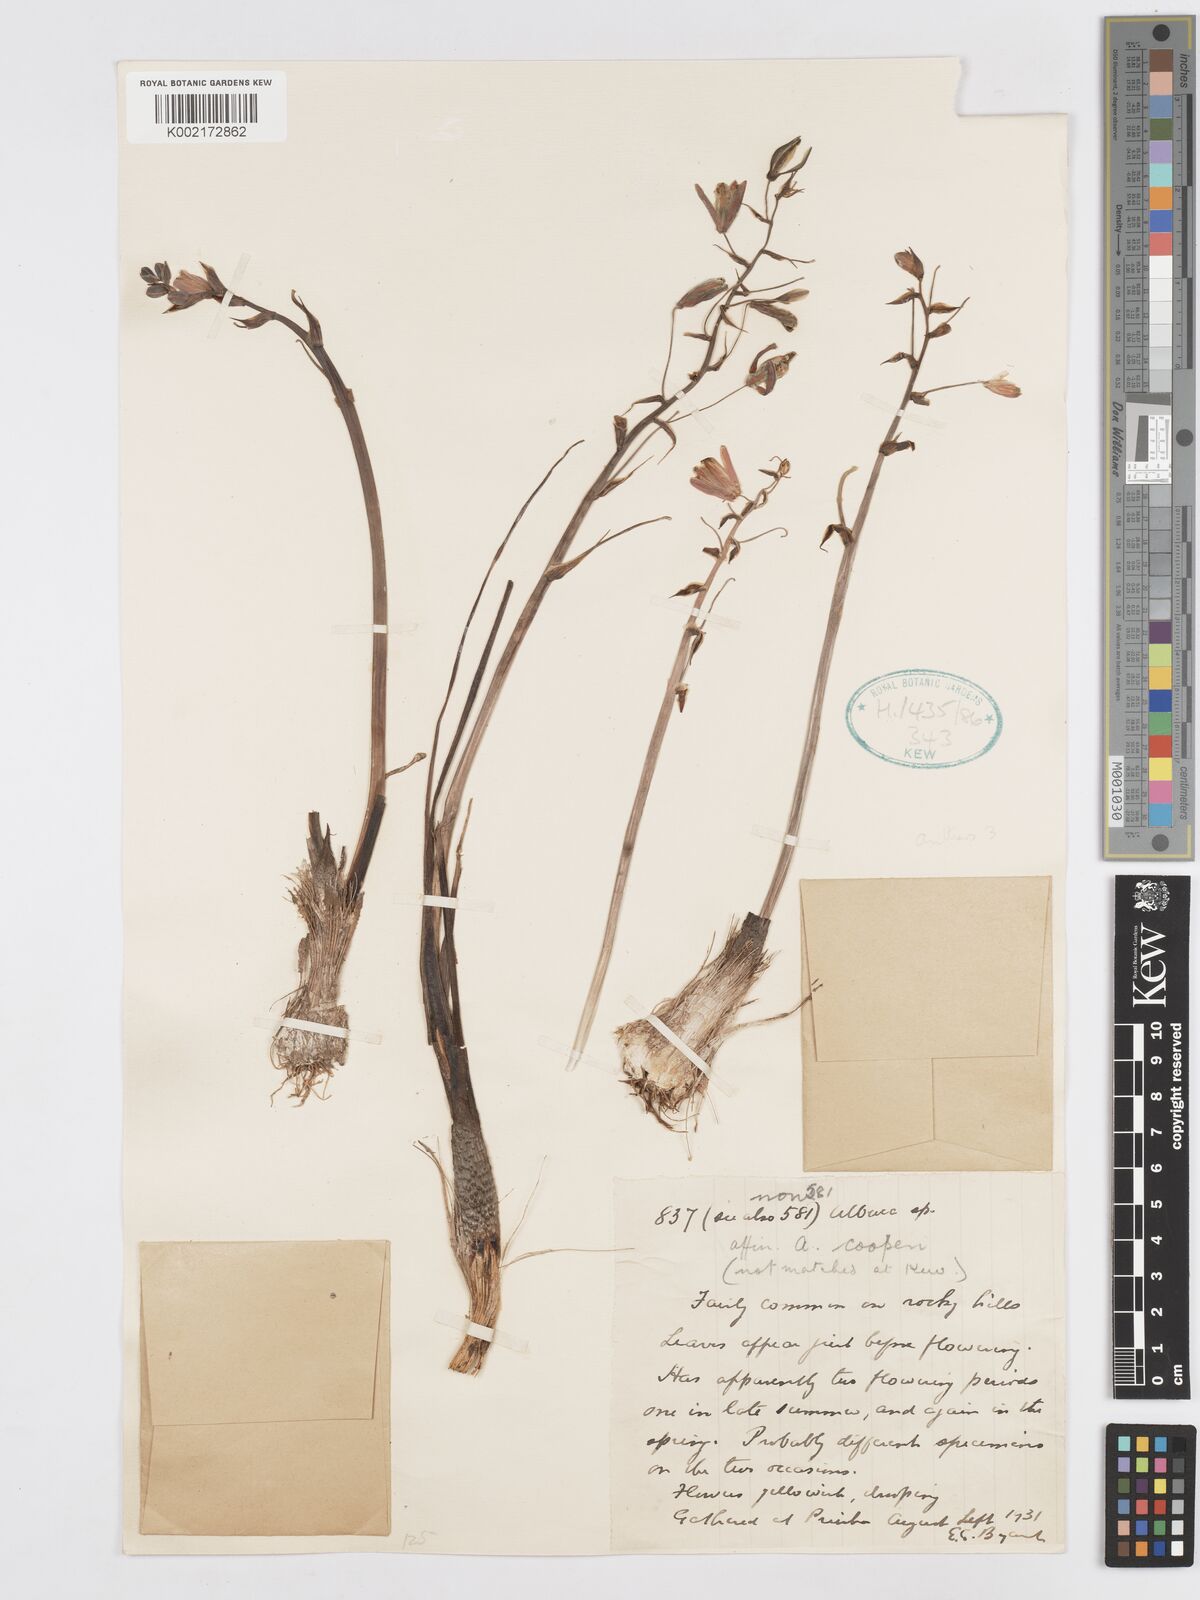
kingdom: Plantae
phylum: Tracheophyta
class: Liliopsida
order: Asparagales
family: Asparagaceae
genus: Albuca
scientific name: Albuca cooperi
